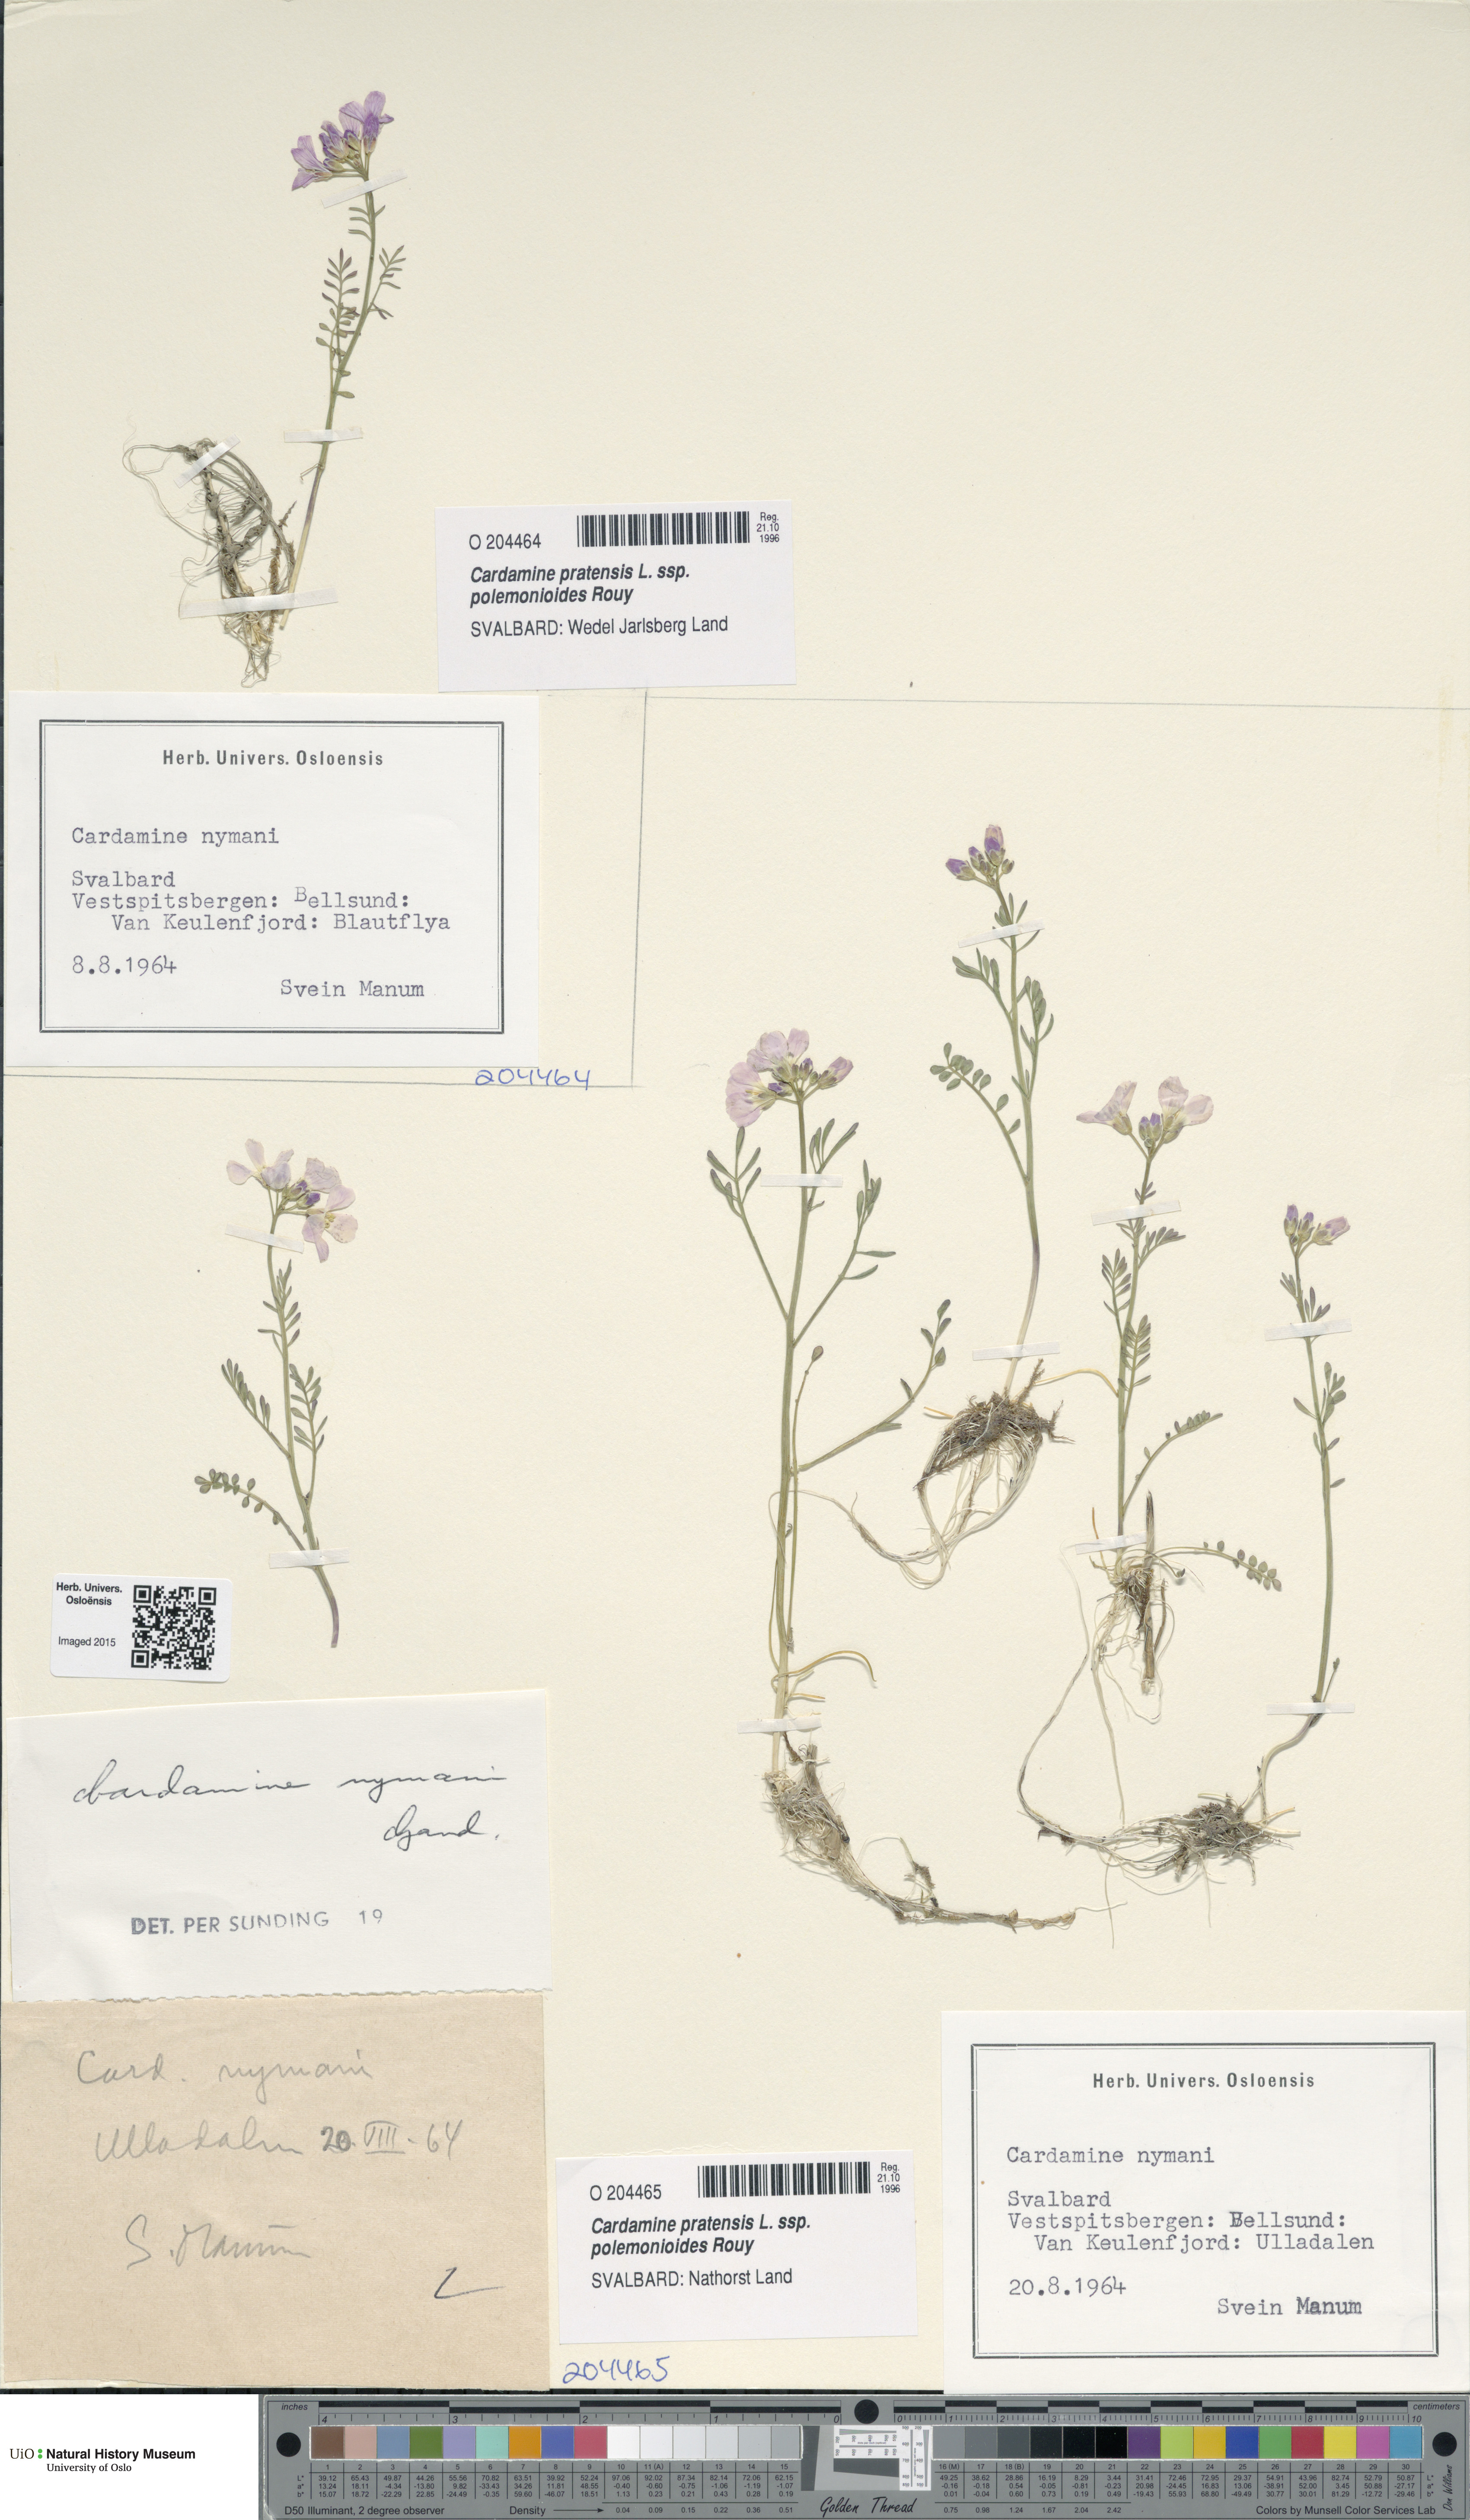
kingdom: Plantae
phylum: Tracheophyta
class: Magnoliopsida
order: Brassicales
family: Brassicaceae
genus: Cardamine
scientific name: Cardamine nymanii
